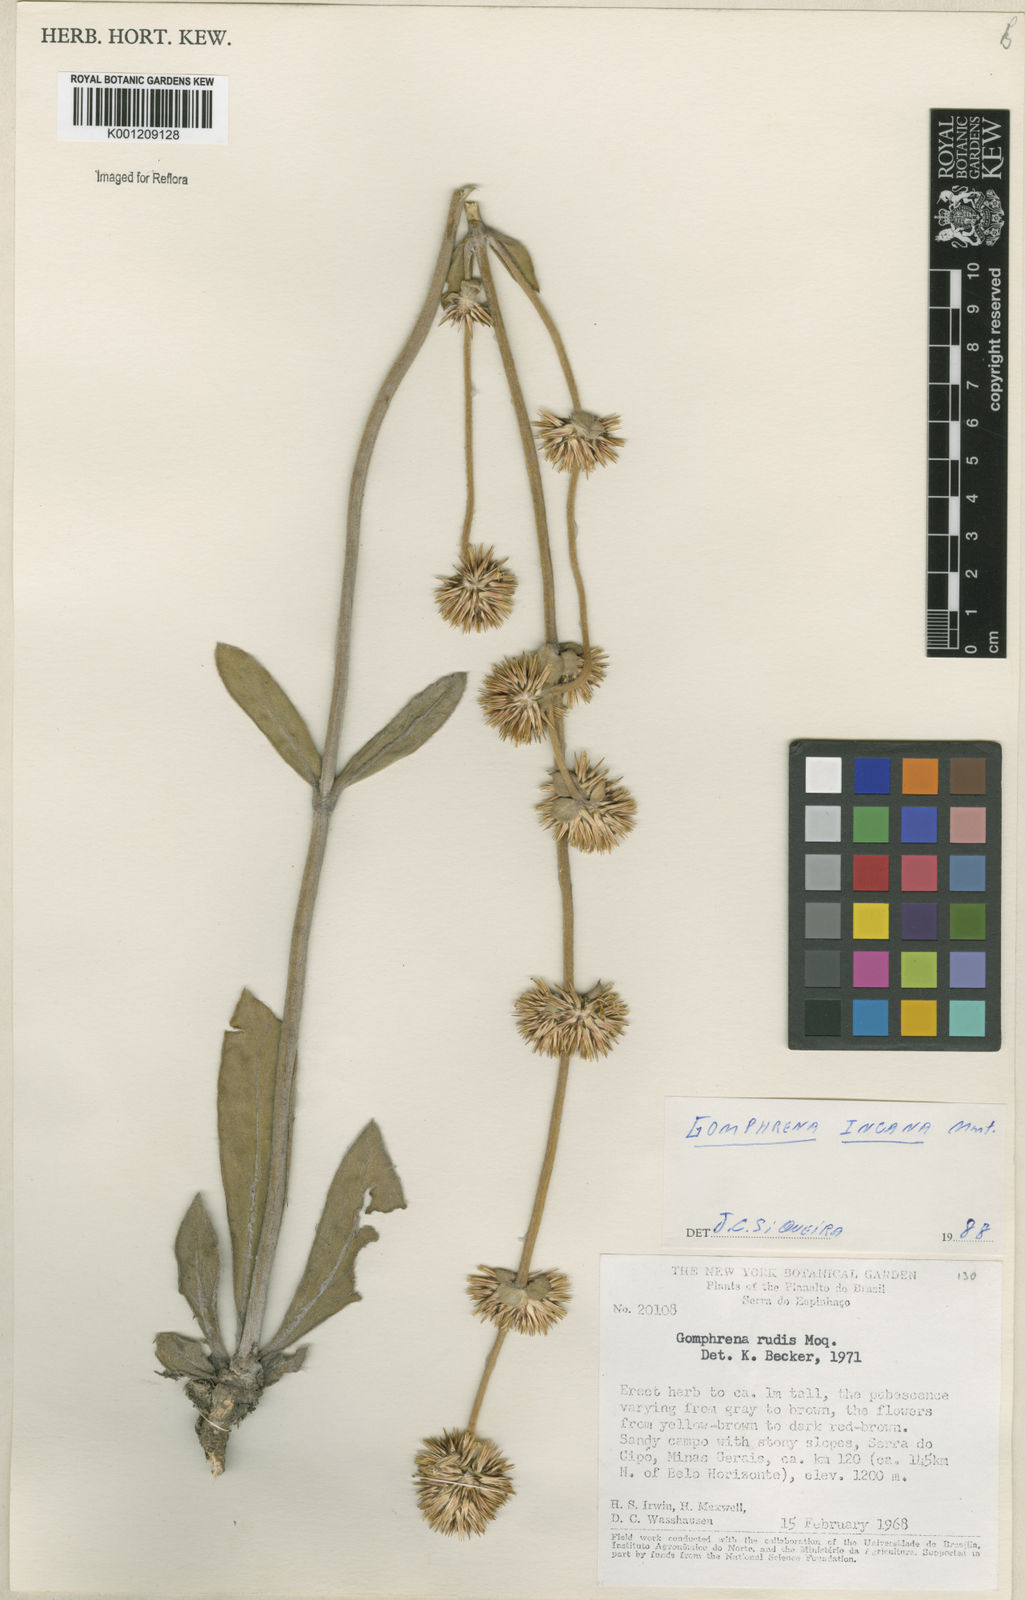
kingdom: Plantae
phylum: Tracheophyta
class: Magnoliopsida
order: Caryophyllales
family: Amaranthaceae
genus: Gomphrena
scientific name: Gomphrena incana
